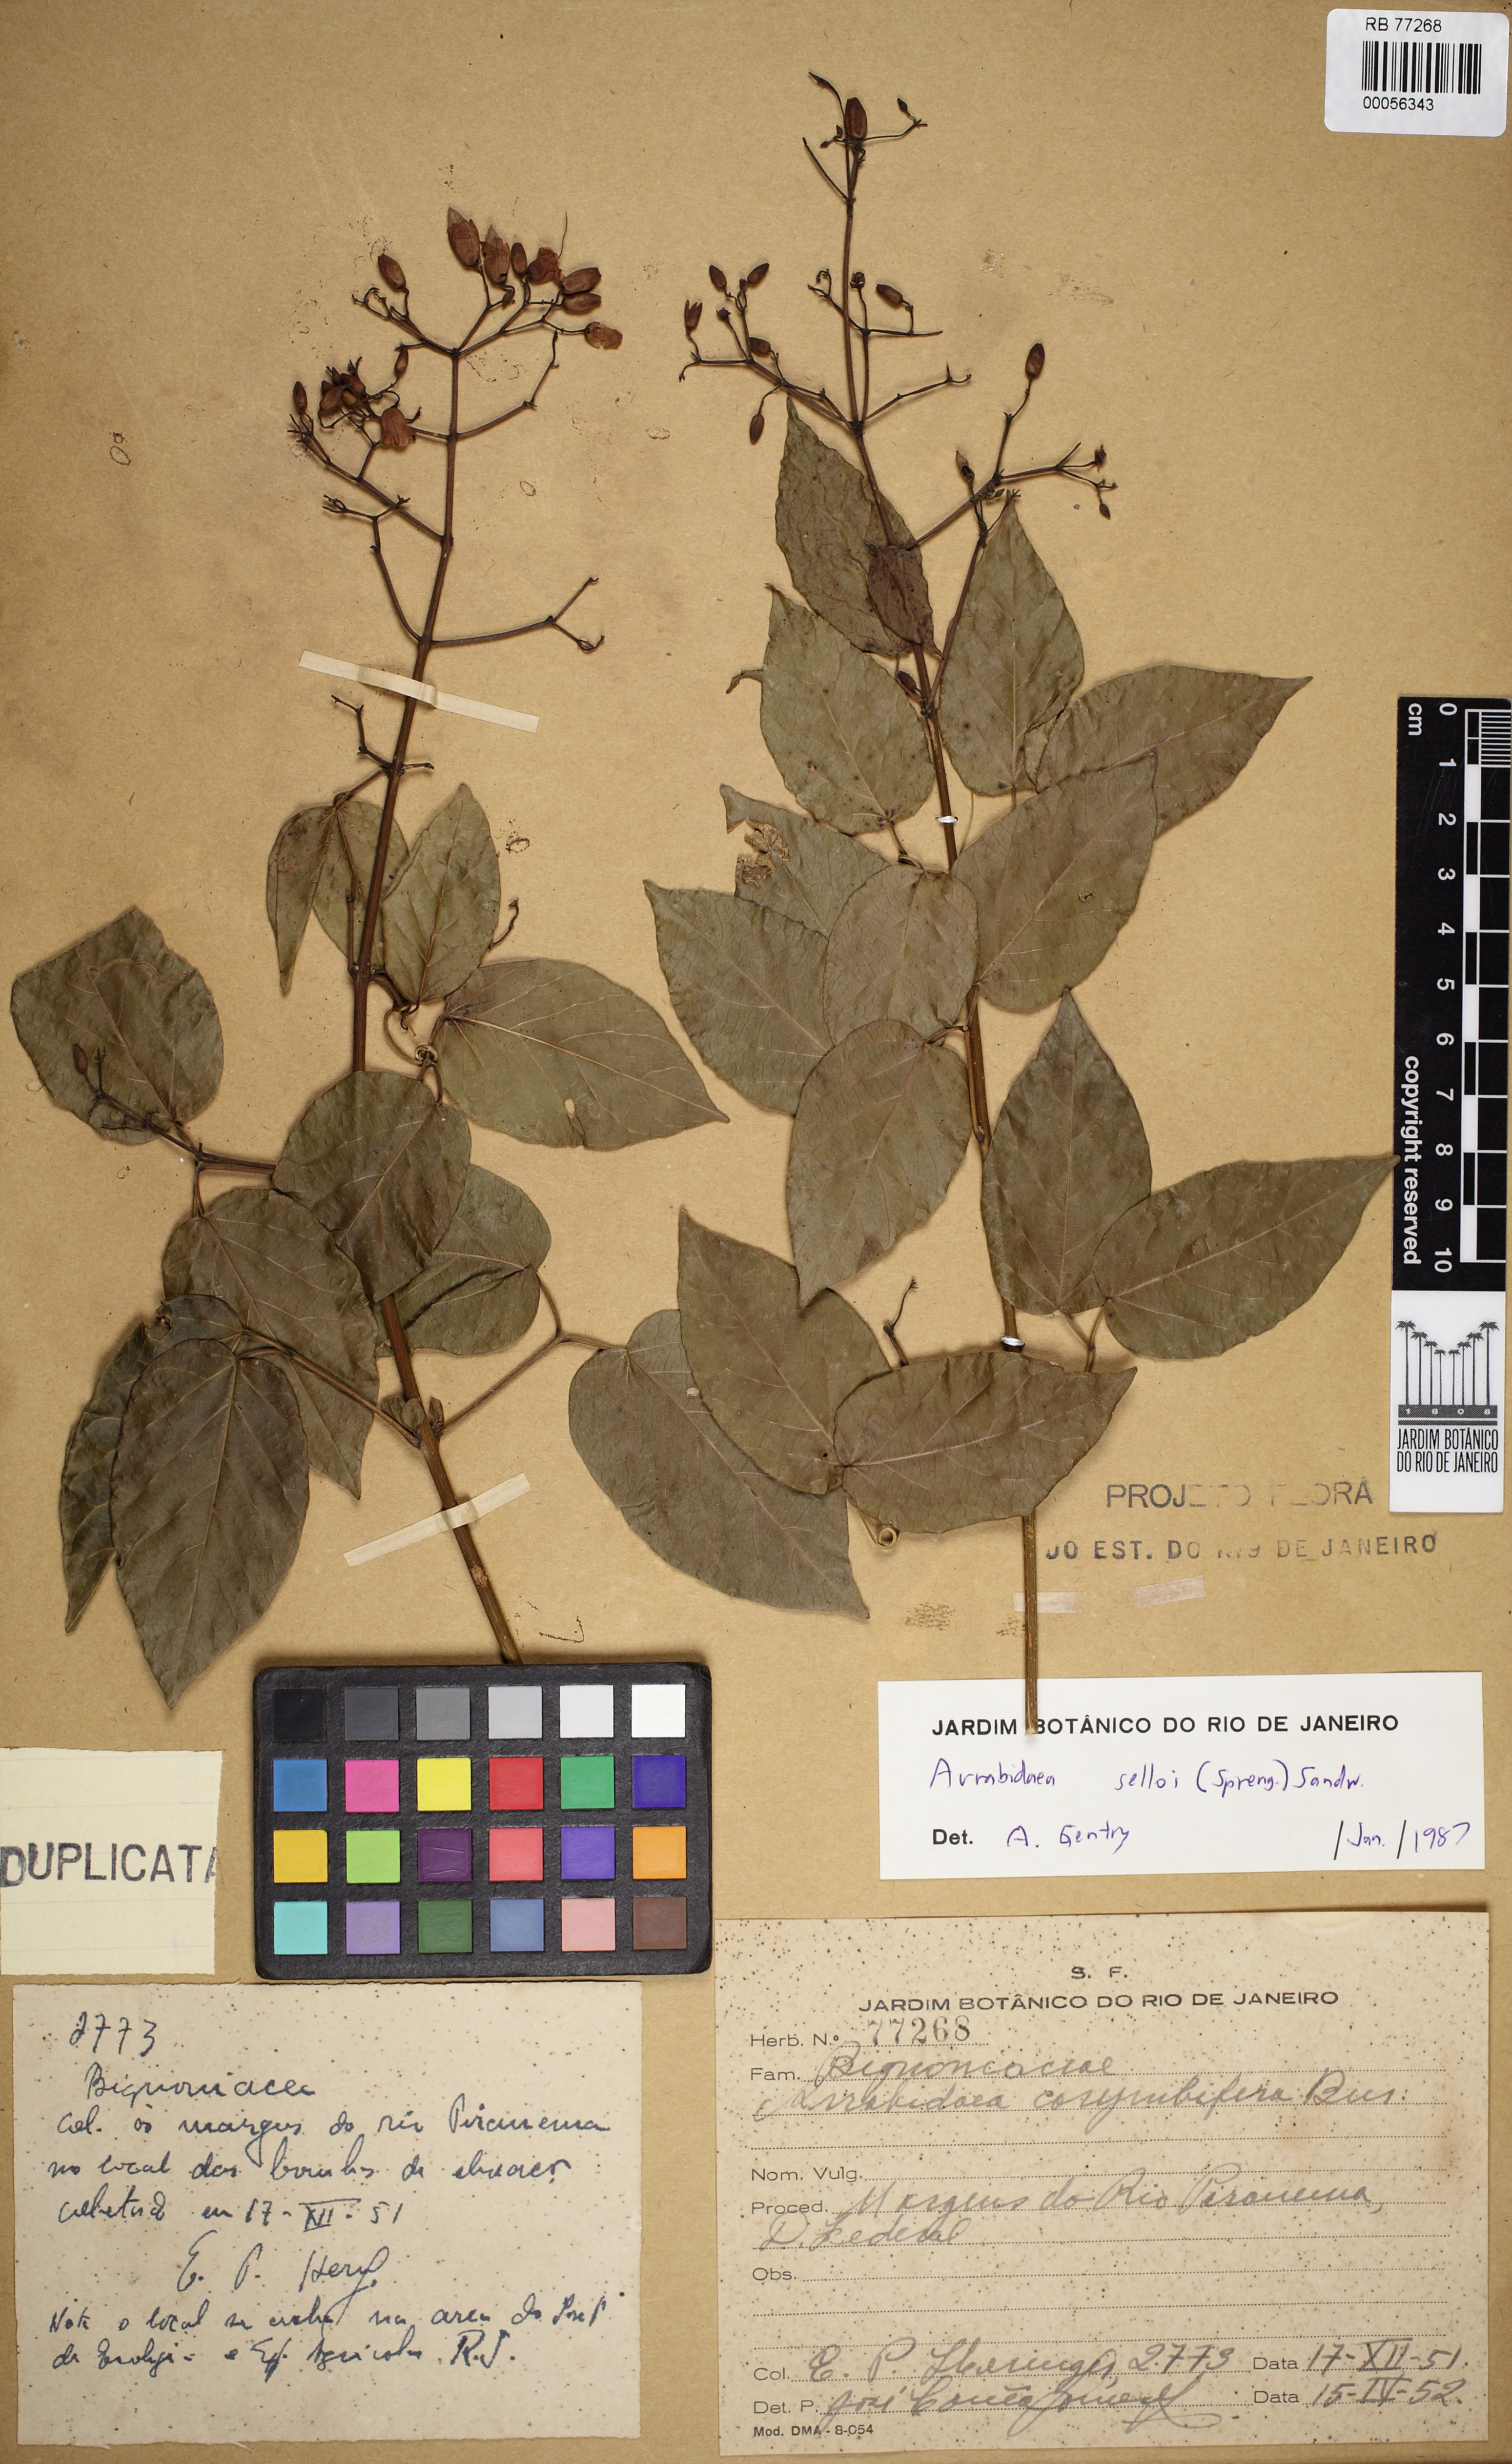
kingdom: Plantae
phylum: Tracheophyta
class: Magnoliopsida
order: Lamiales
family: Bignoniaceae
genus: Tanaecium
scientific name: Tanaecium selloi
